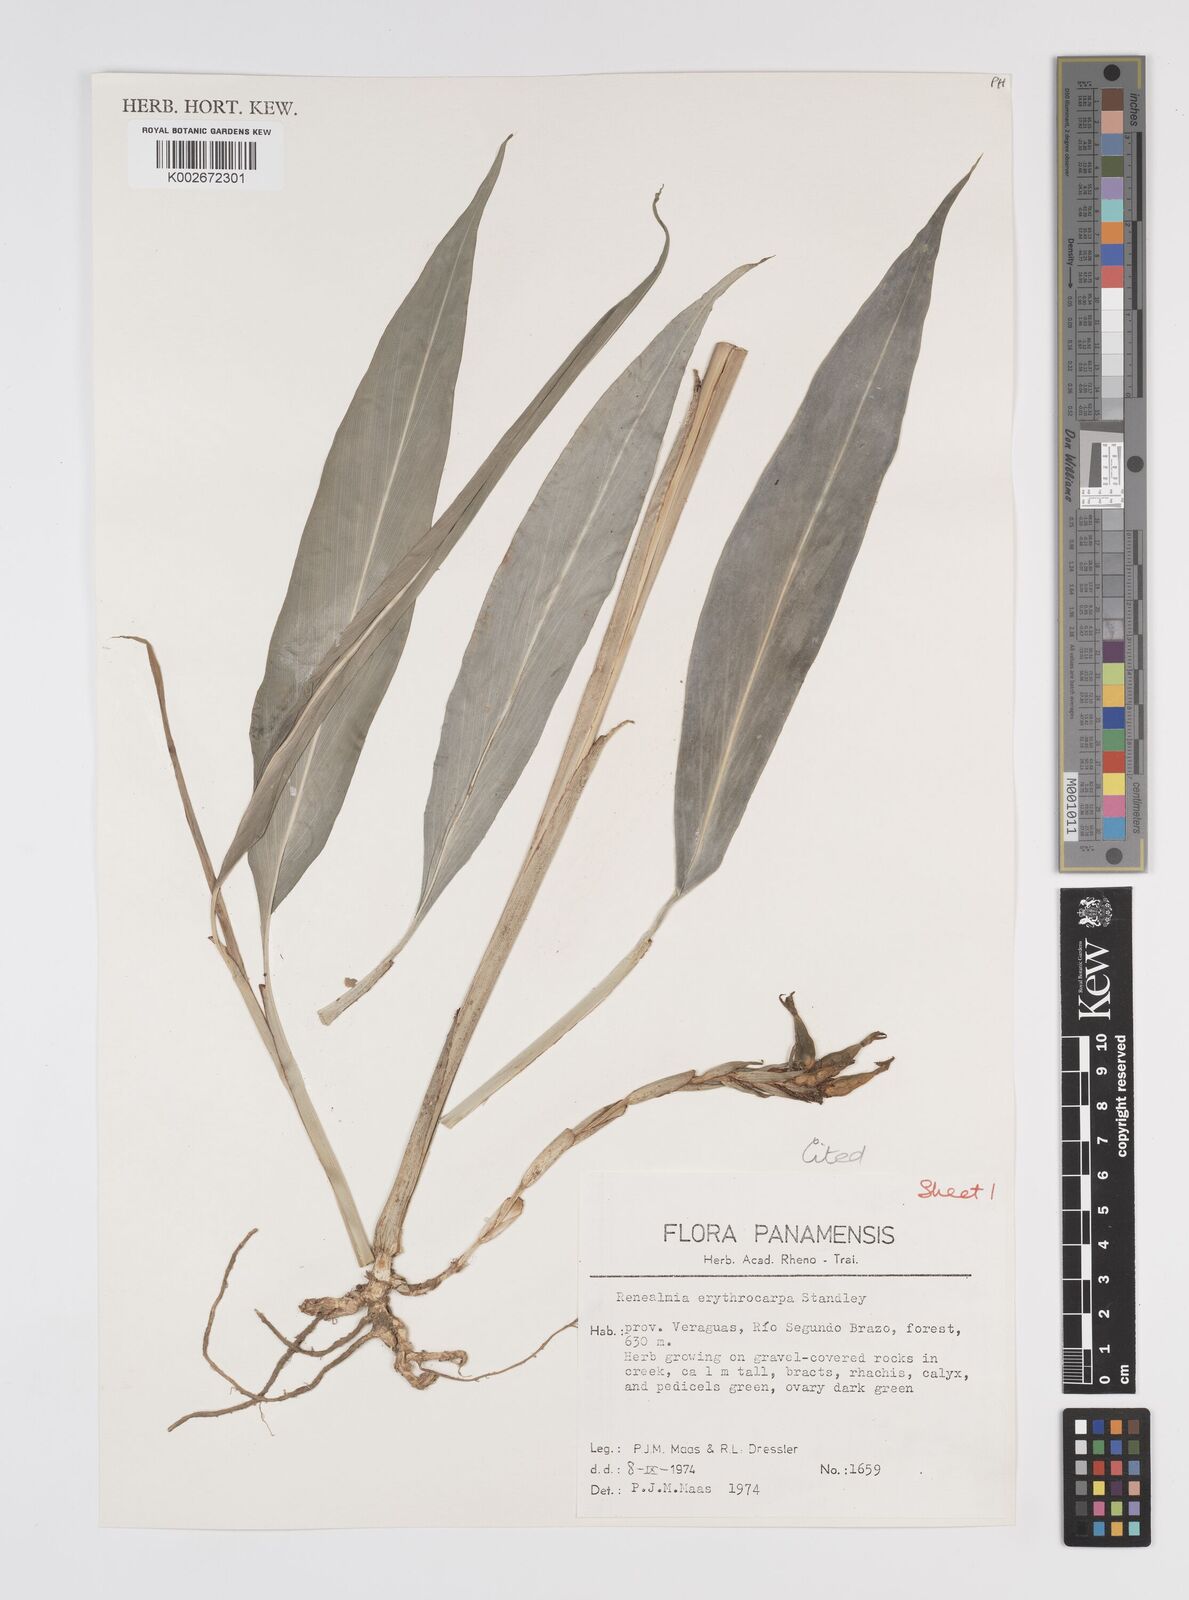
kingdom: Plantae
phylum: Tracheophyta
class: Liliopsida
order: Zingiberales
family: Zingiberaceae
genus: Renealmia
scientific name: Renealmia erythrocarpa
